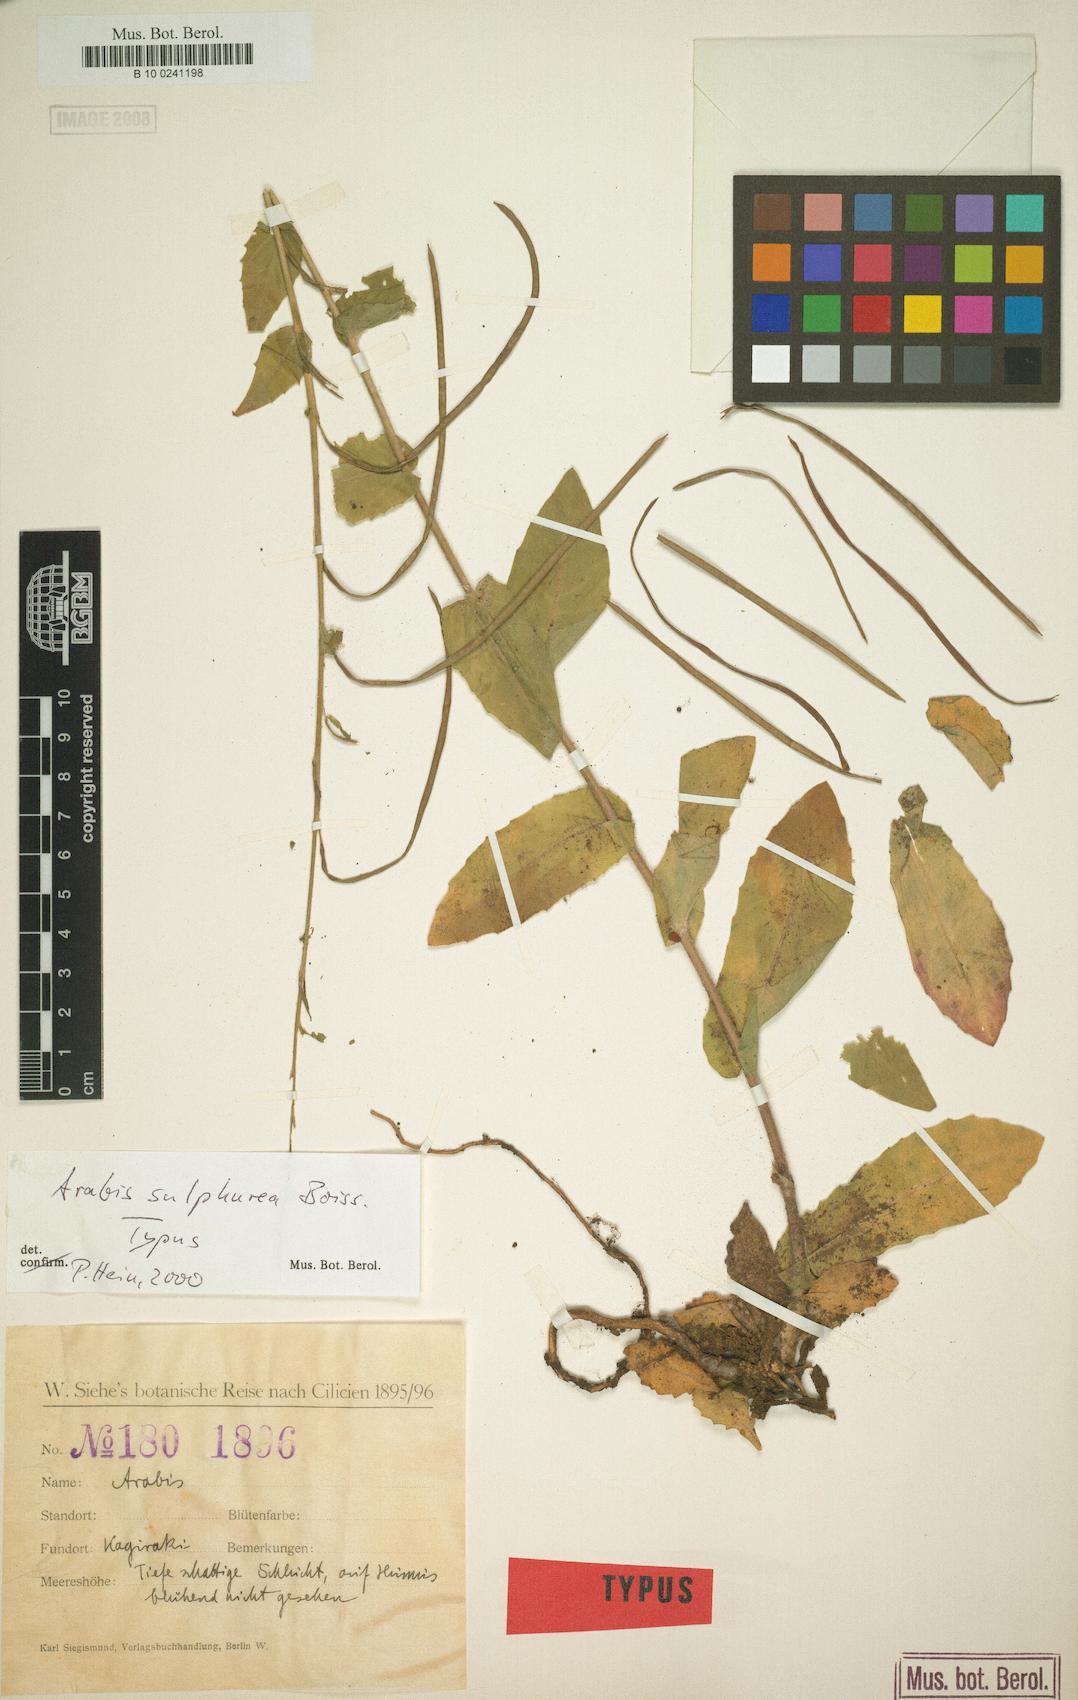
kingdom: Plantae
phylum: Tracheophyta
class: Magnoliopsida
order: Brassicales
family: Brassicaceae
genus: Draba
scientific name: Draba aucheri
